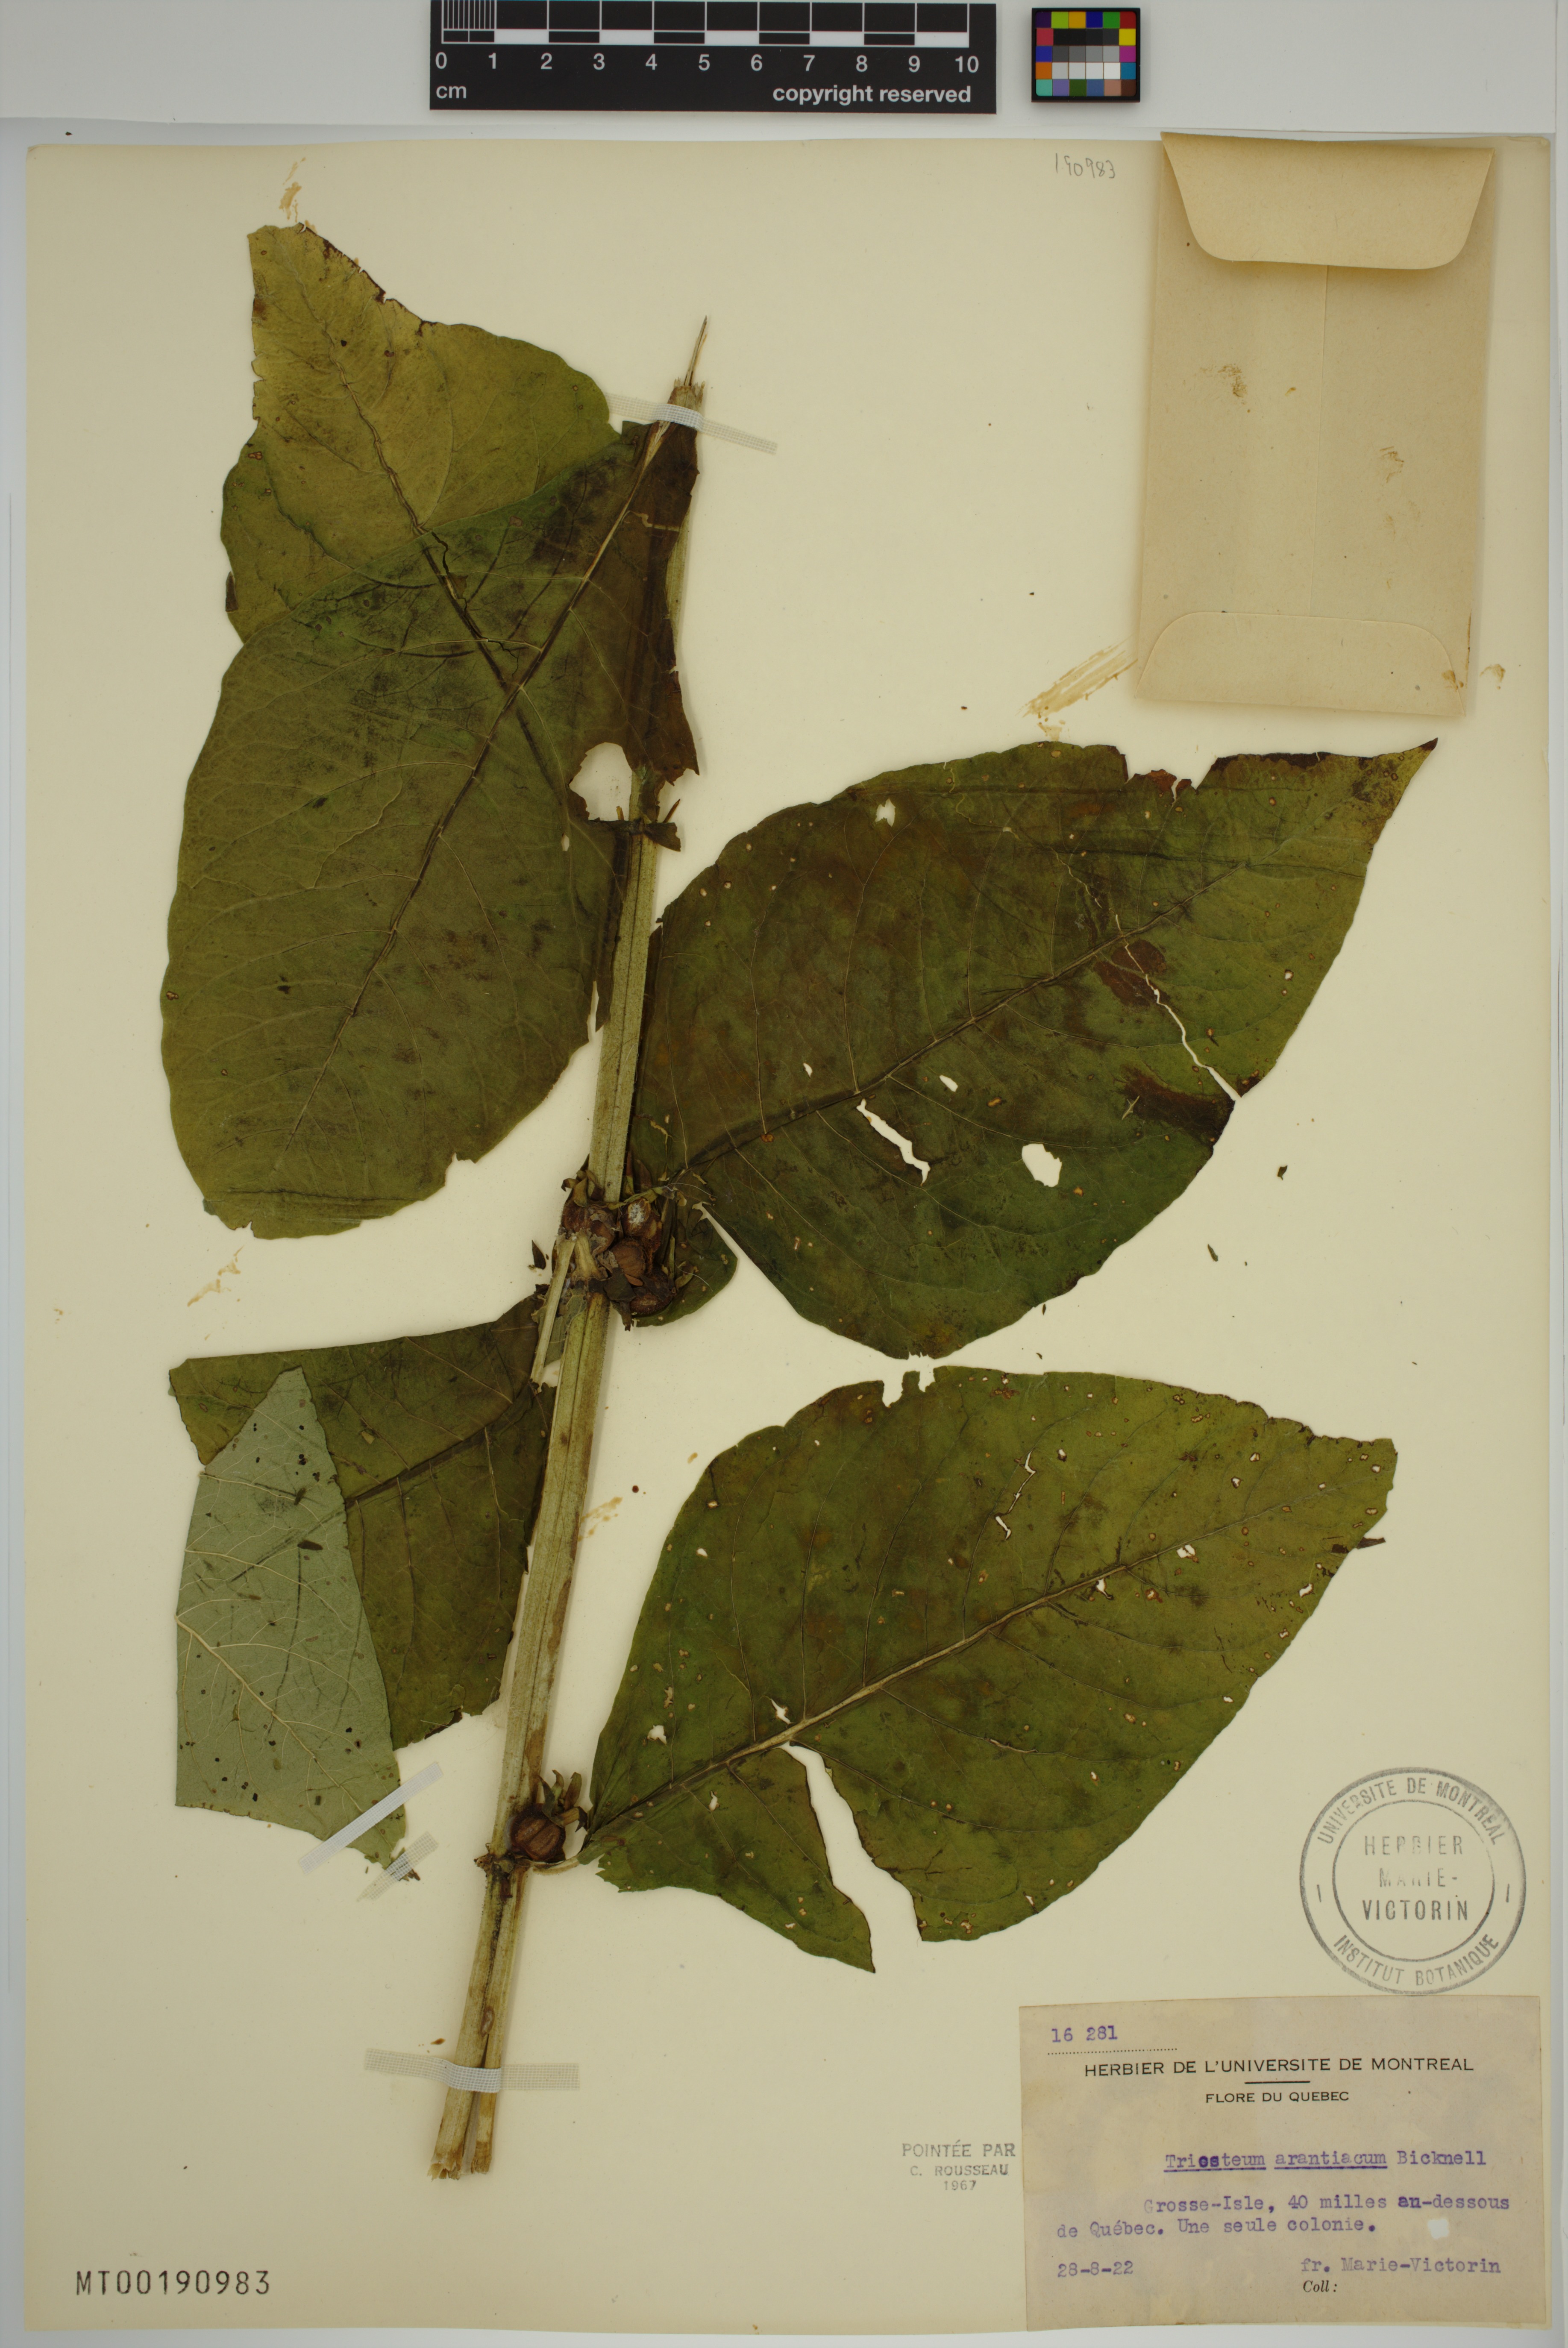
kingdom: Plantae
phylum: Tracheophyta
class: Magnoliopsida
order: Dipsacales
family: Caprifoliaceae
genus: Triosteum
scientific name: Triosteum aurantiacum
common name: Coffee tinker's-weed
